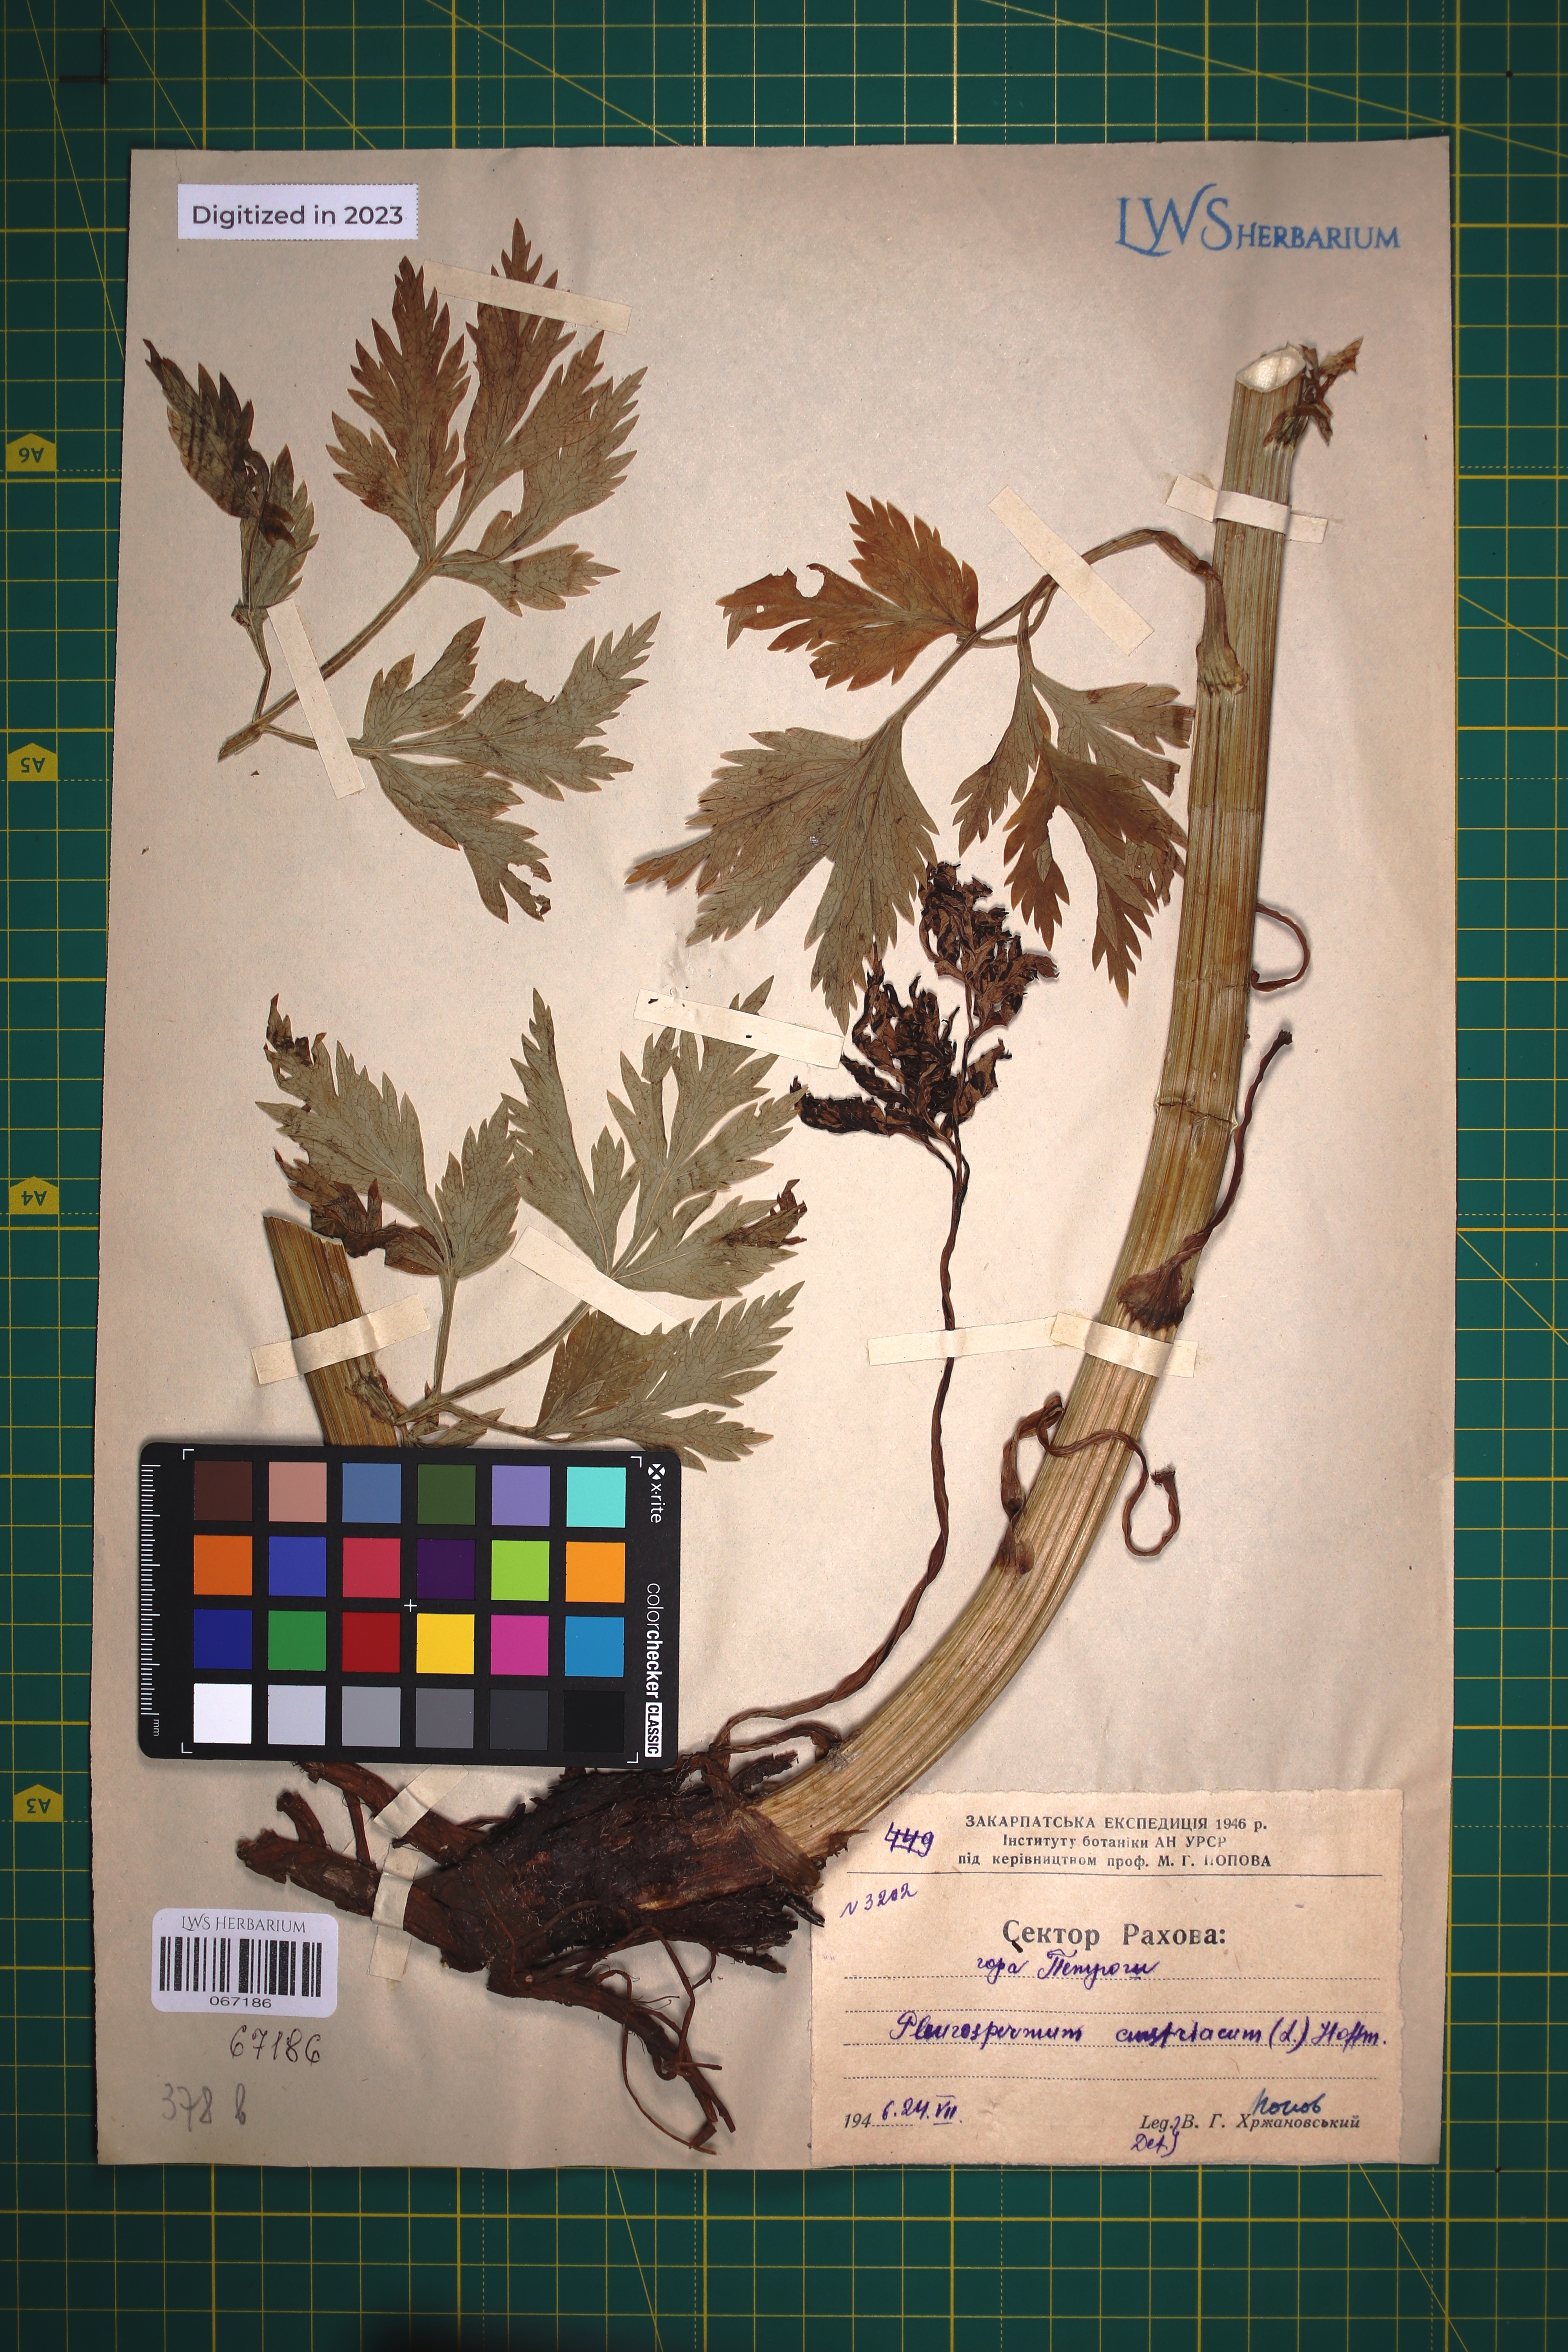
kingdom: Plantae
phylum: Tracheophyta
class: Magnoliopsida
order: Apiales
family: Apiaceae
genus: Pleurospermum
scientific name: Pleurospermum austriacum
